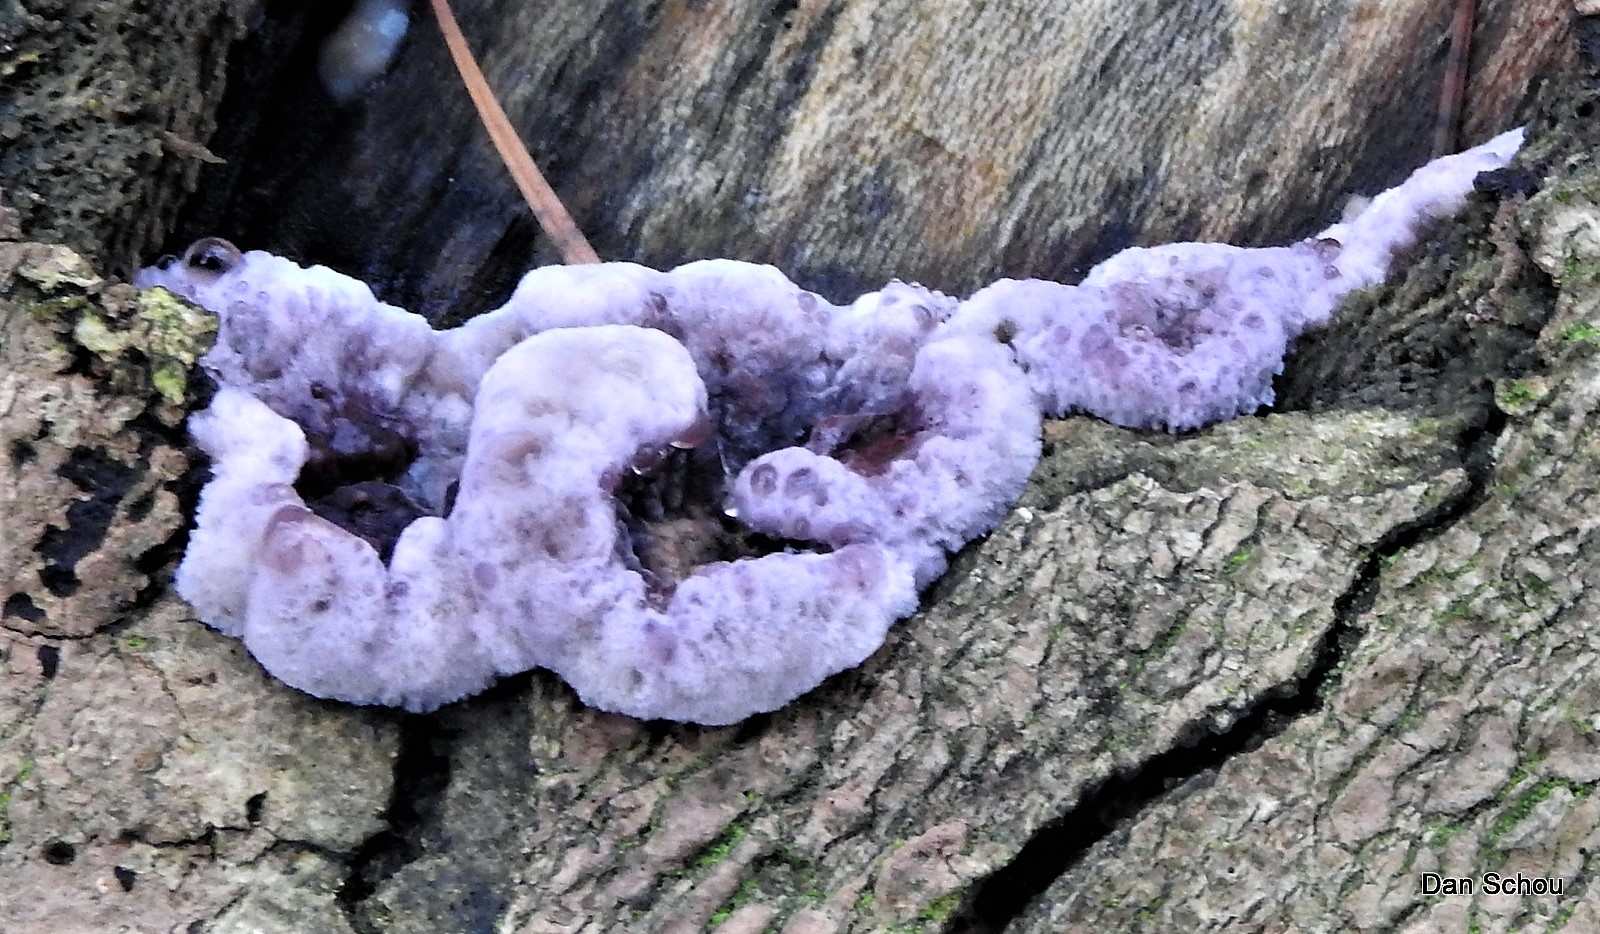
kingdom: Fungi
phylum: Basidiomycota
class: Agaricomycetes
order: Agaricales
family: Cyphellaceae
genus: Chondrostereum
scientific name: Chondrostereum purpureum
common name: purpurlædersvamp
